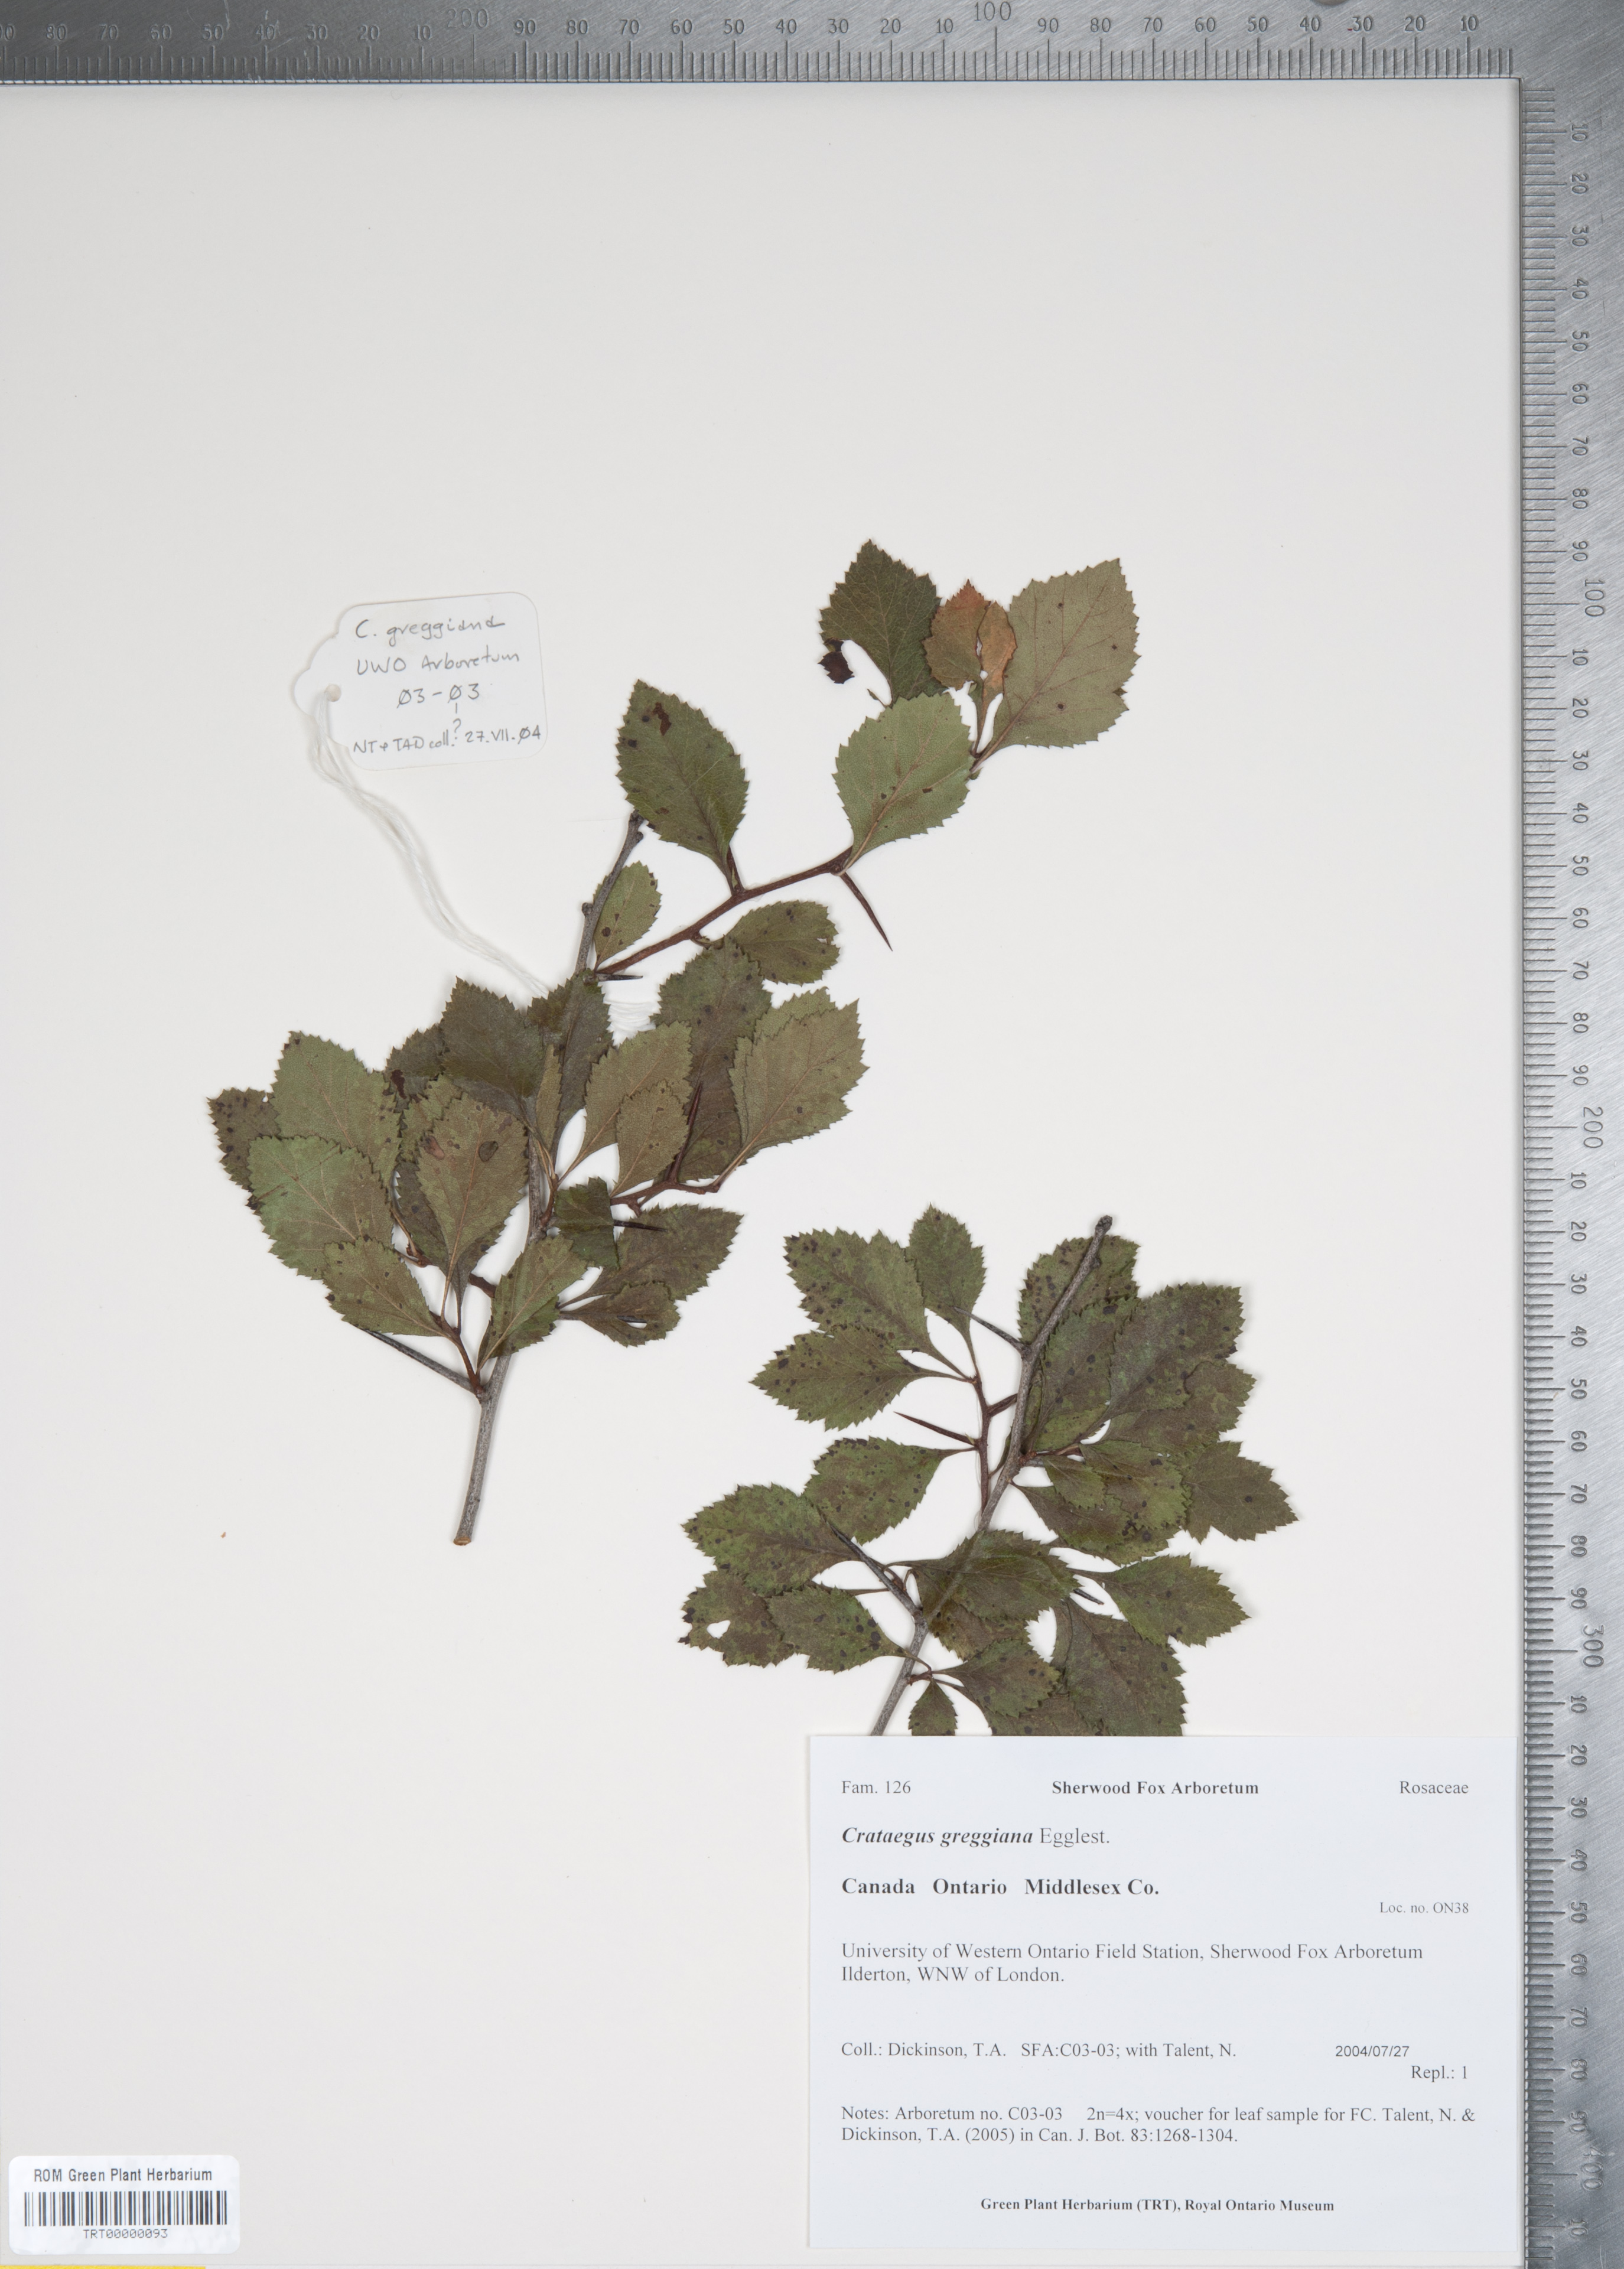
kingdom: Plantae
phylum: Tracheophyta
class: Magnoliopsida
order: Rosales
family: Rosaceae
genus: Crataegus
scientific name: Crataegus greggiana
